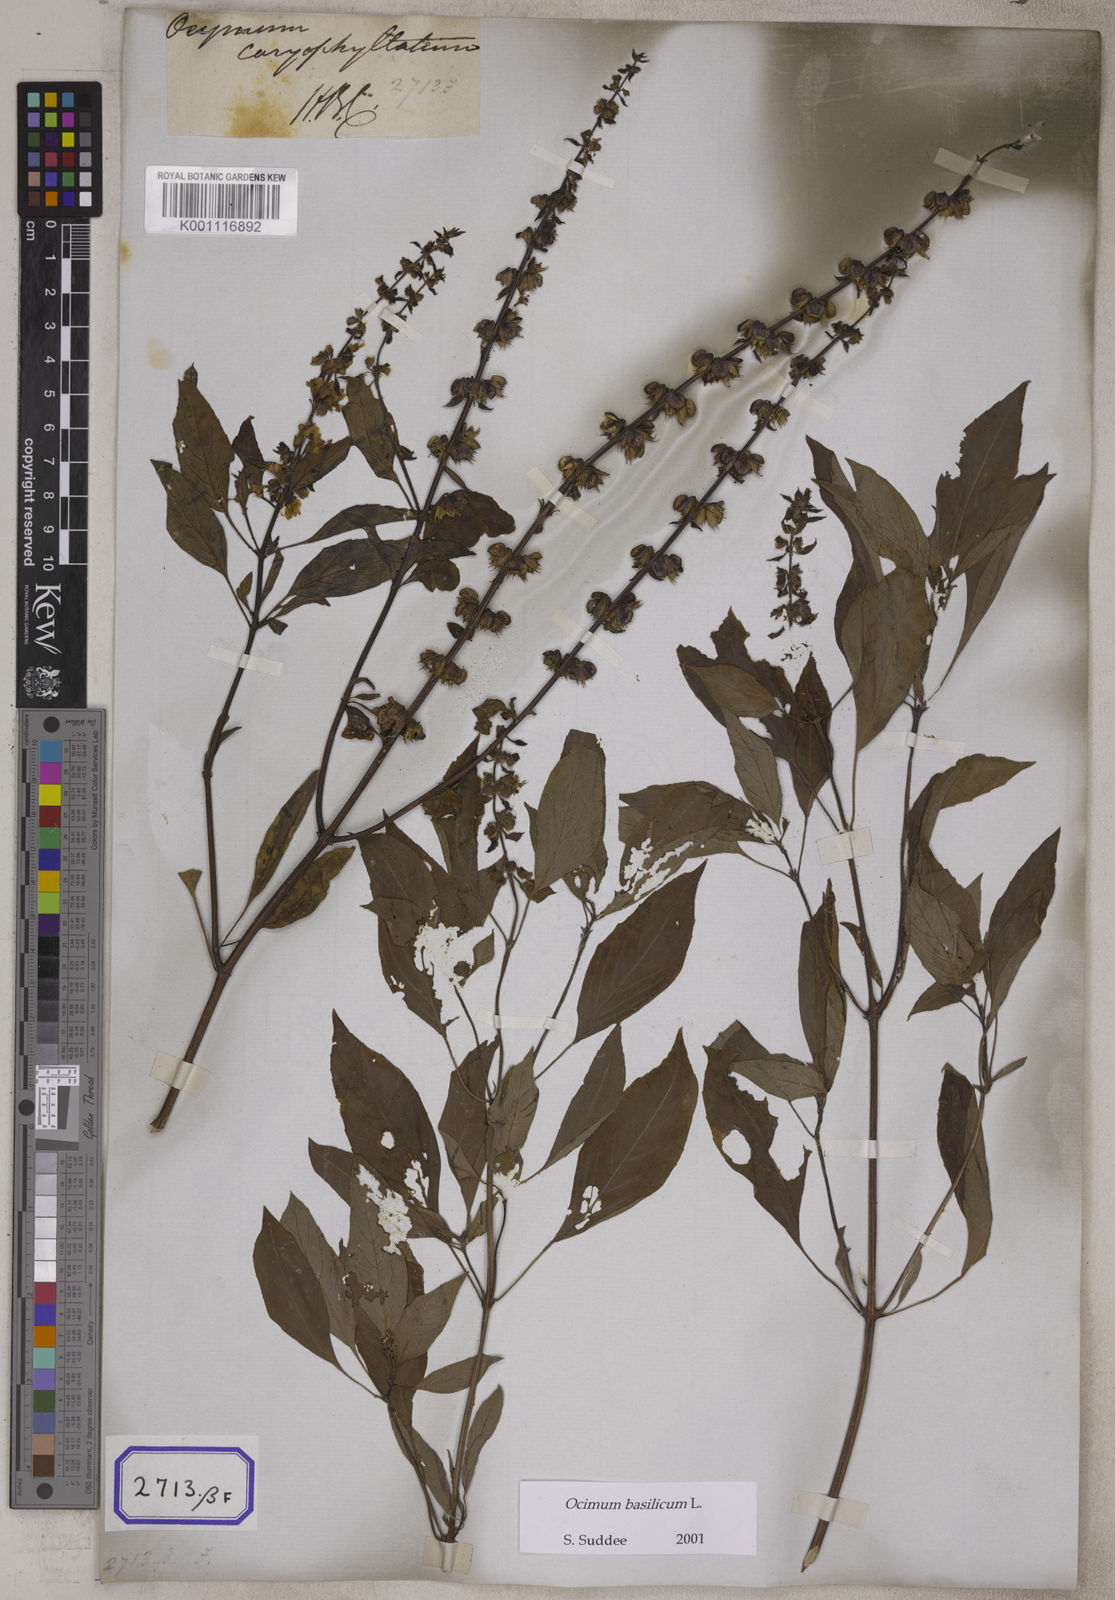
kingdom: Plantae
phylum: Tracheophyta
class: Magnoliopsida
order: Lamiales
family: Lamiaceae
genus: Ocimum
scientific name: Ocimum
